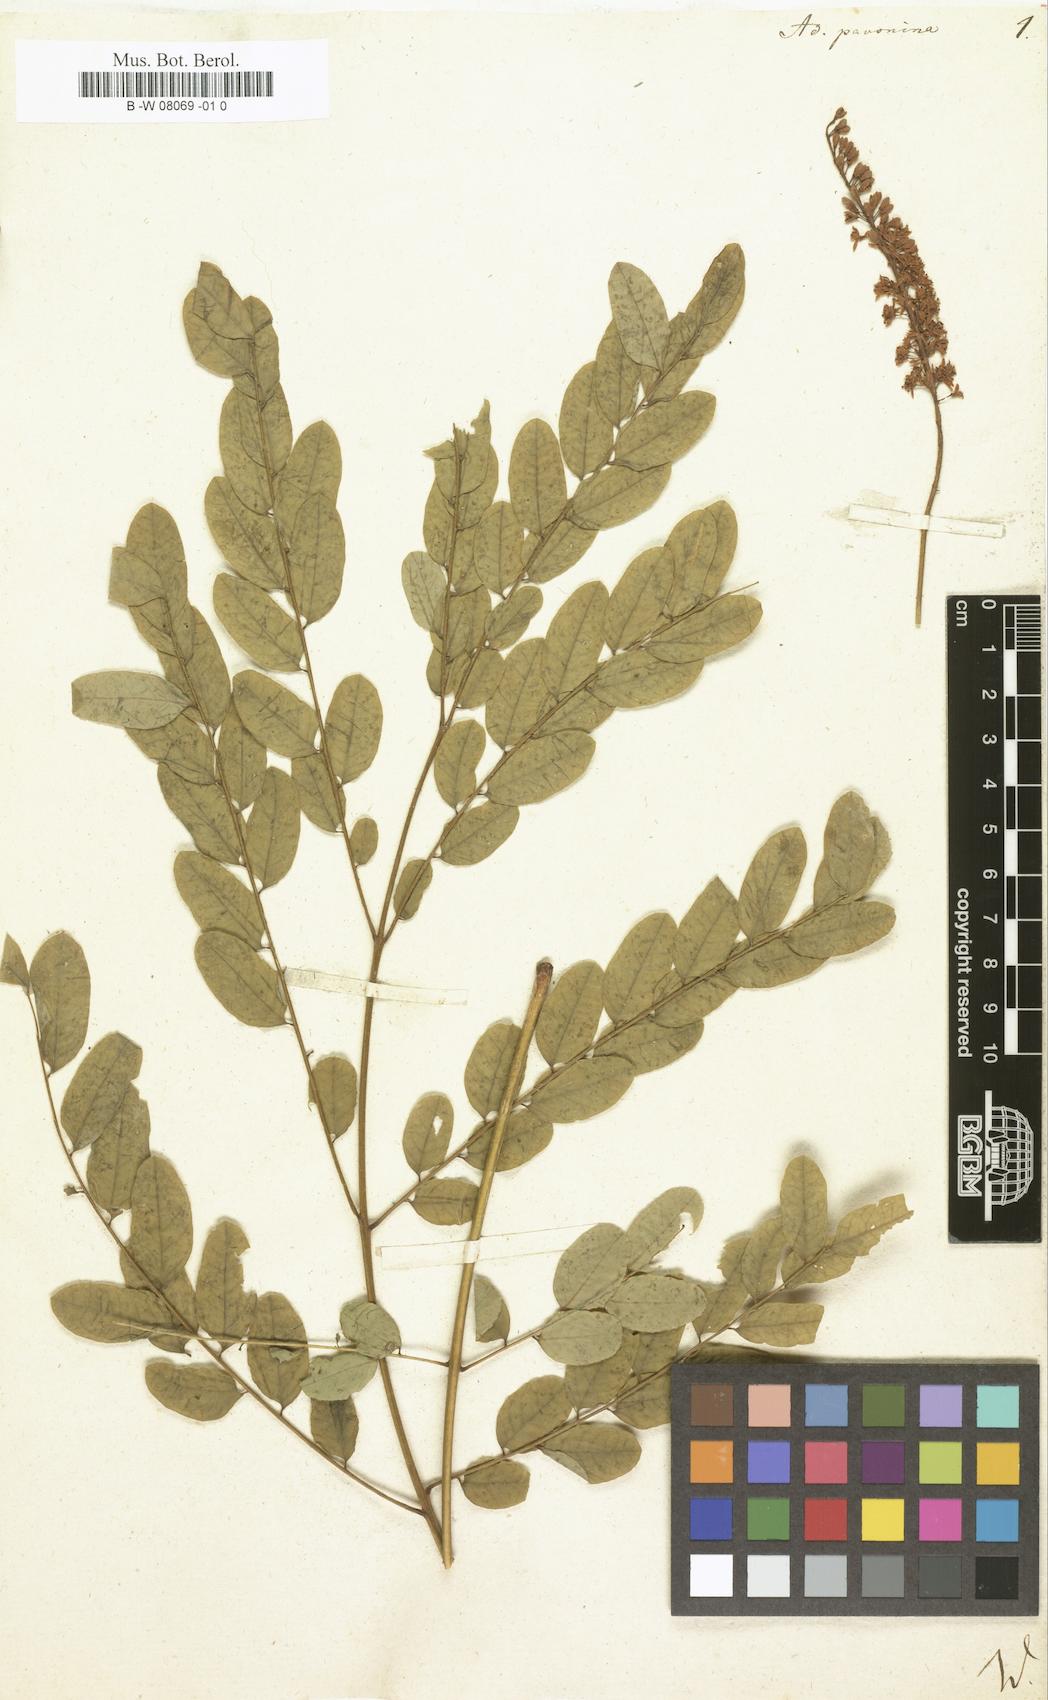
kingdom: Plantae
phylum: Tracheophyta
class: Magnoliopsida
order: Fabales
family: Fabaceae
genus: Adenanthera
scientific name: Adenanthera pavonina
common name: Red beadtree
